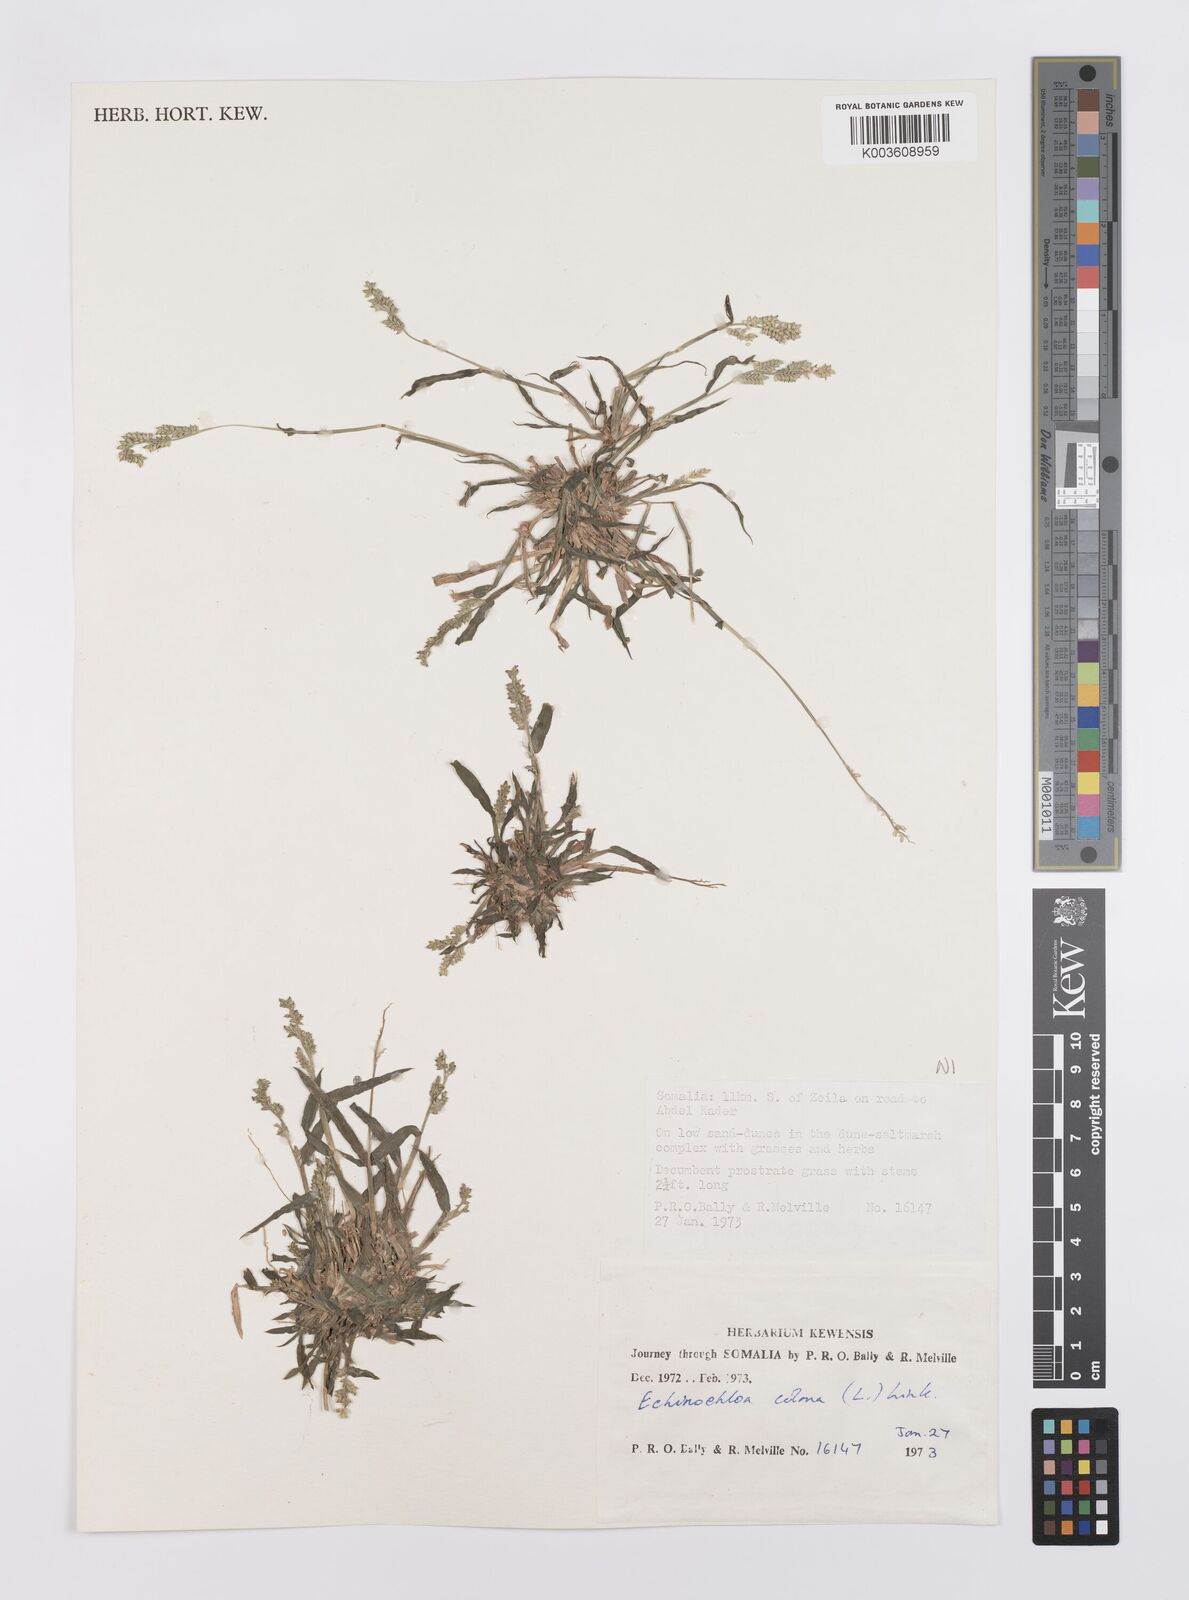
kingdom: Plantae
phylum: Tracheophyta
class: Liliopsida
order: Poales
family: Poaceae
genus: Echinochloa
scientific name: Echinochloa colonum
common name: Jungle rice
